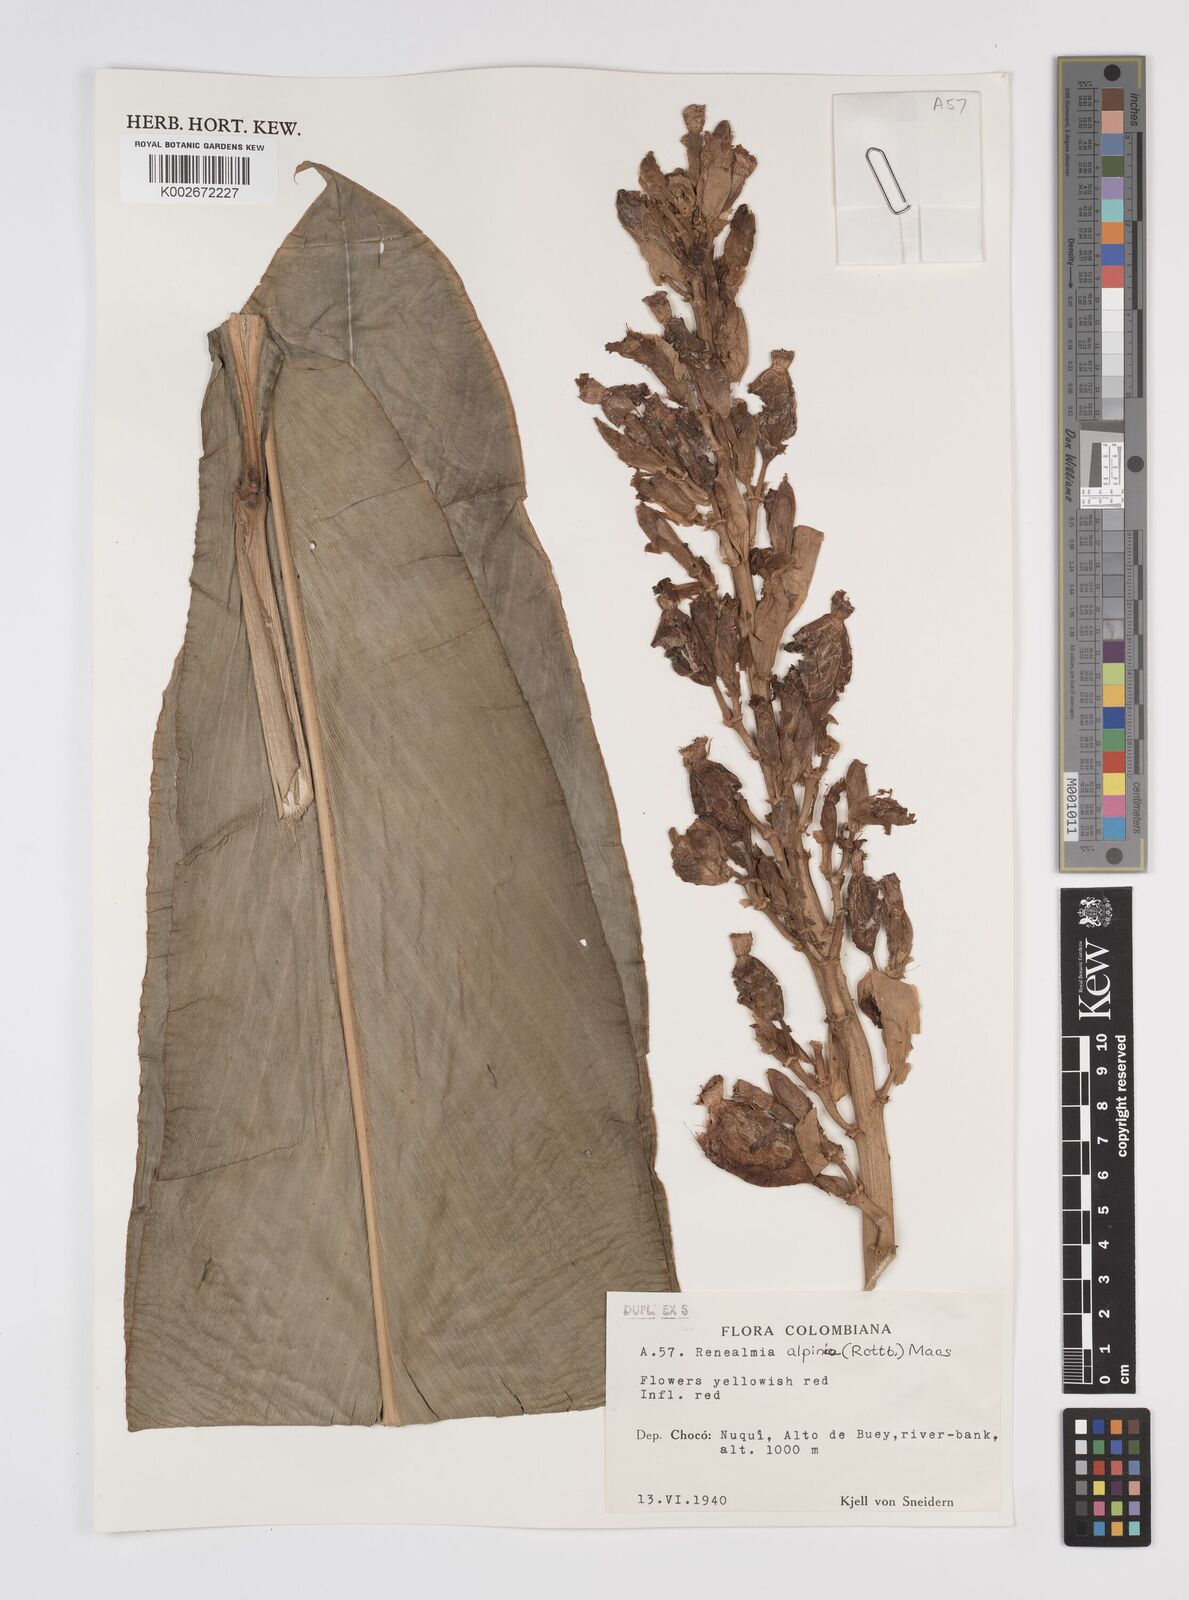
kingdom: Plantae
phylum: Tracheophyta
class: Liliopsida
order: Zingiberales
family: Zingiberaceae
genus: Renealmia
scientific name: Renealmia alpinia
